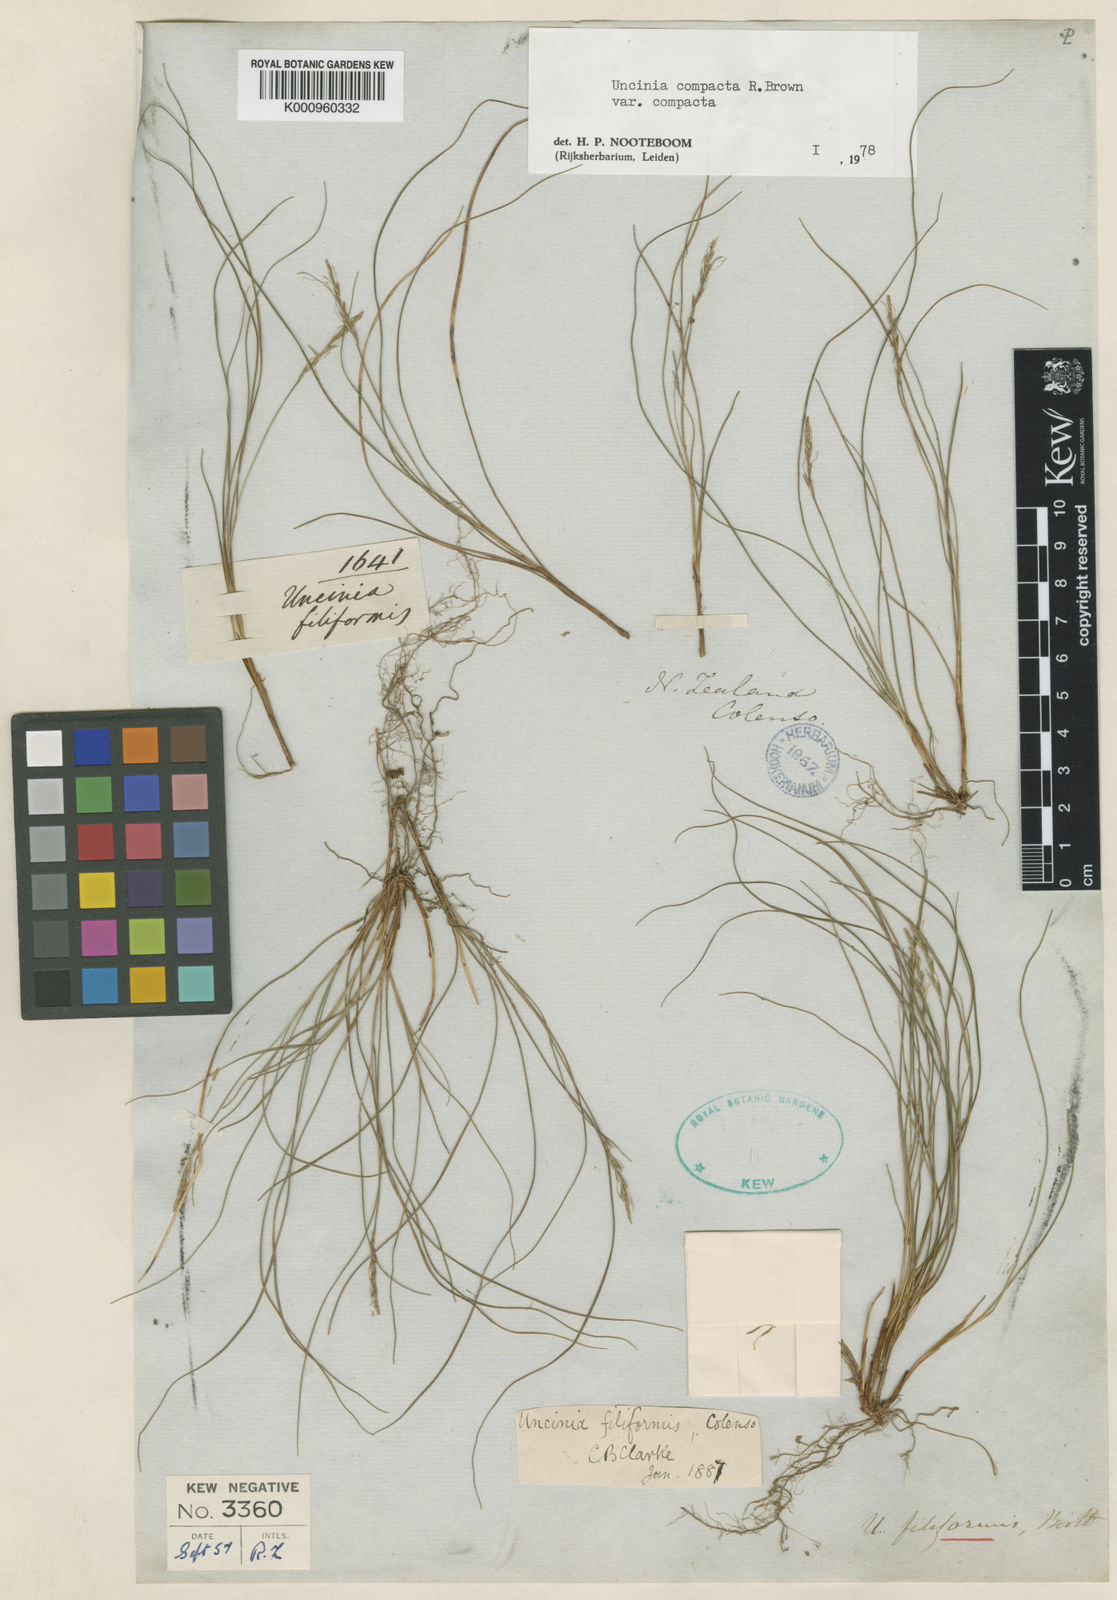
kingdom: Plantae
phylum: Tracheophyta
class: Liliopsida
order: Poales
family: Cyperaceae
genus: Carex
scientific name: Carex lectissima
